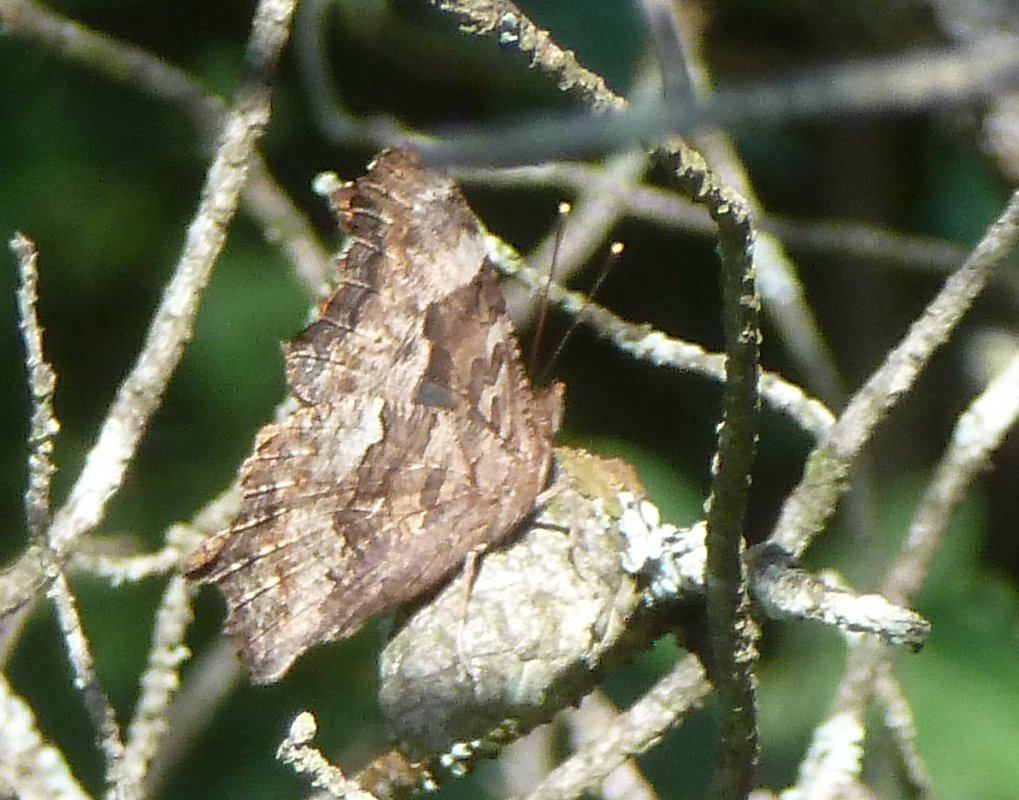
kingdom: Animalia
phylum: Arthropoda
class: Insecta
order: Lepidoptera
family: Nymphalidae
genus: Polygonia
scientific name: Polygonia vaualbum
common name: Compton Tortoiseshell
